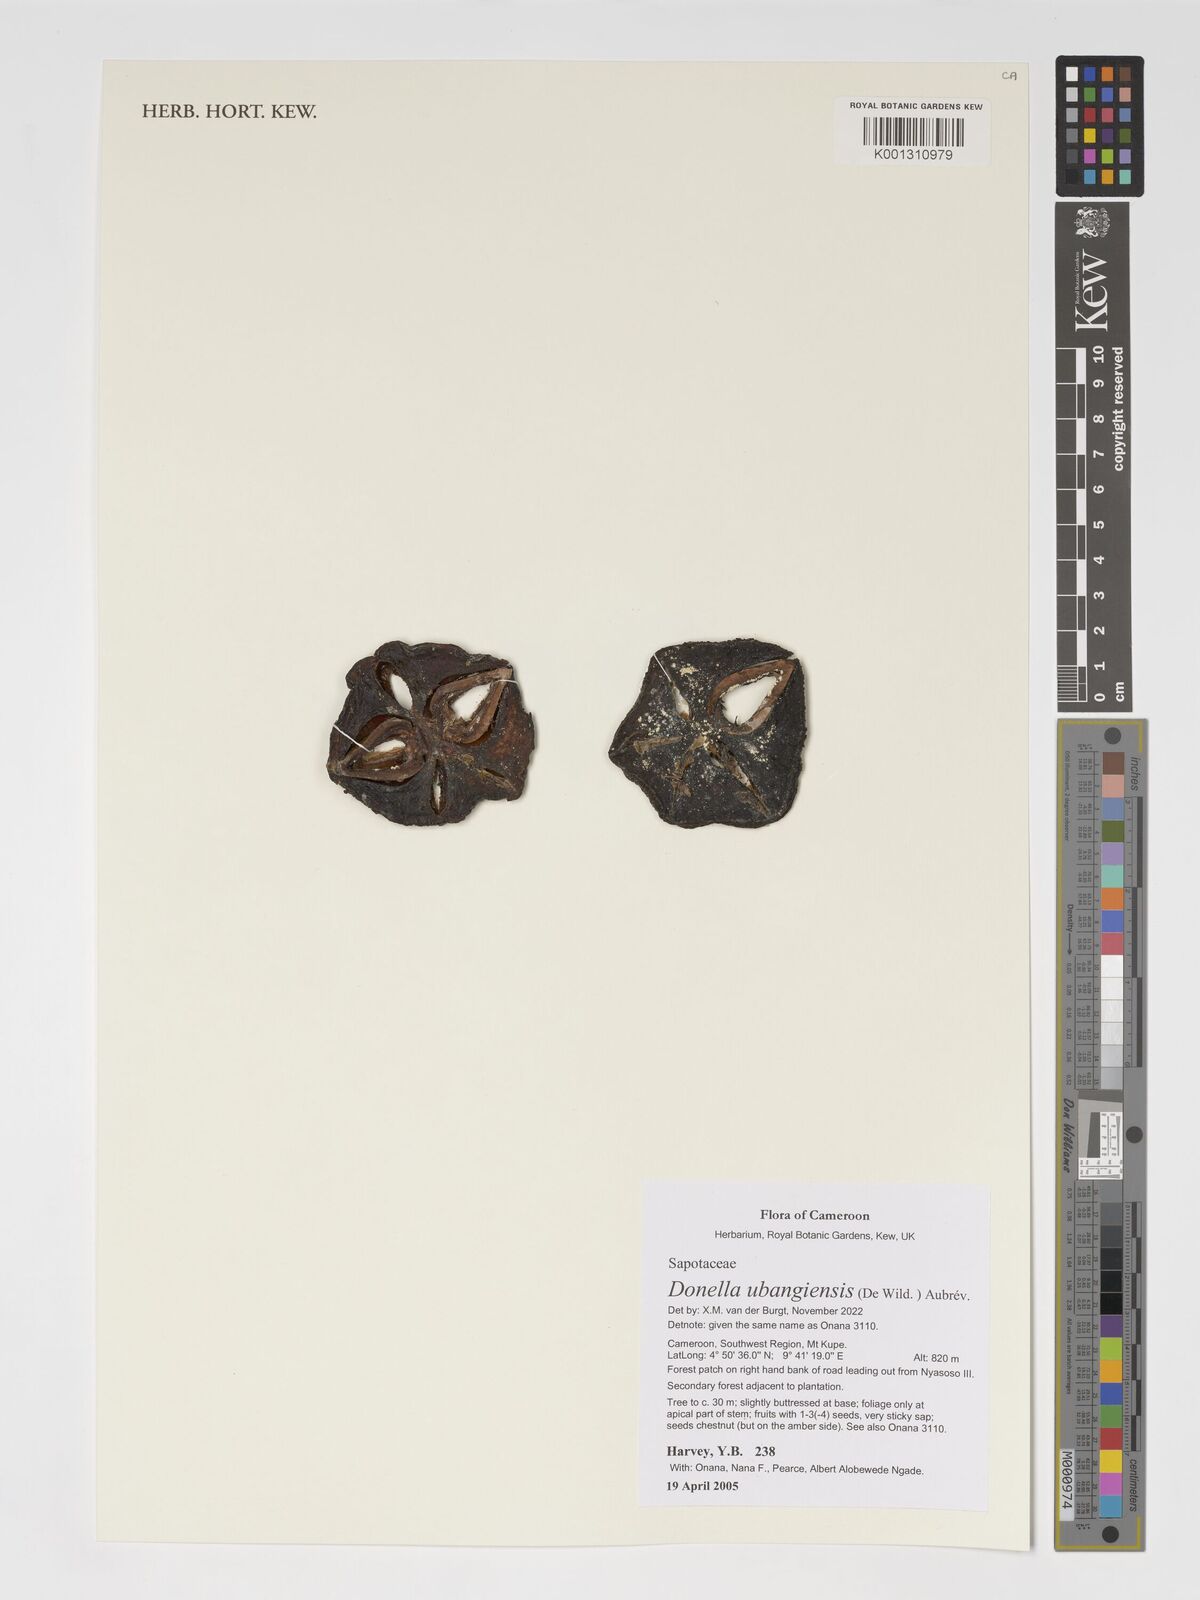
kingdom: Plantae
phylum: Tracheophyta
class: Magnoliopsida
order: Ericales
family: Sapotaceae
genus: Donella
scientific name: Donella ubangiensis
